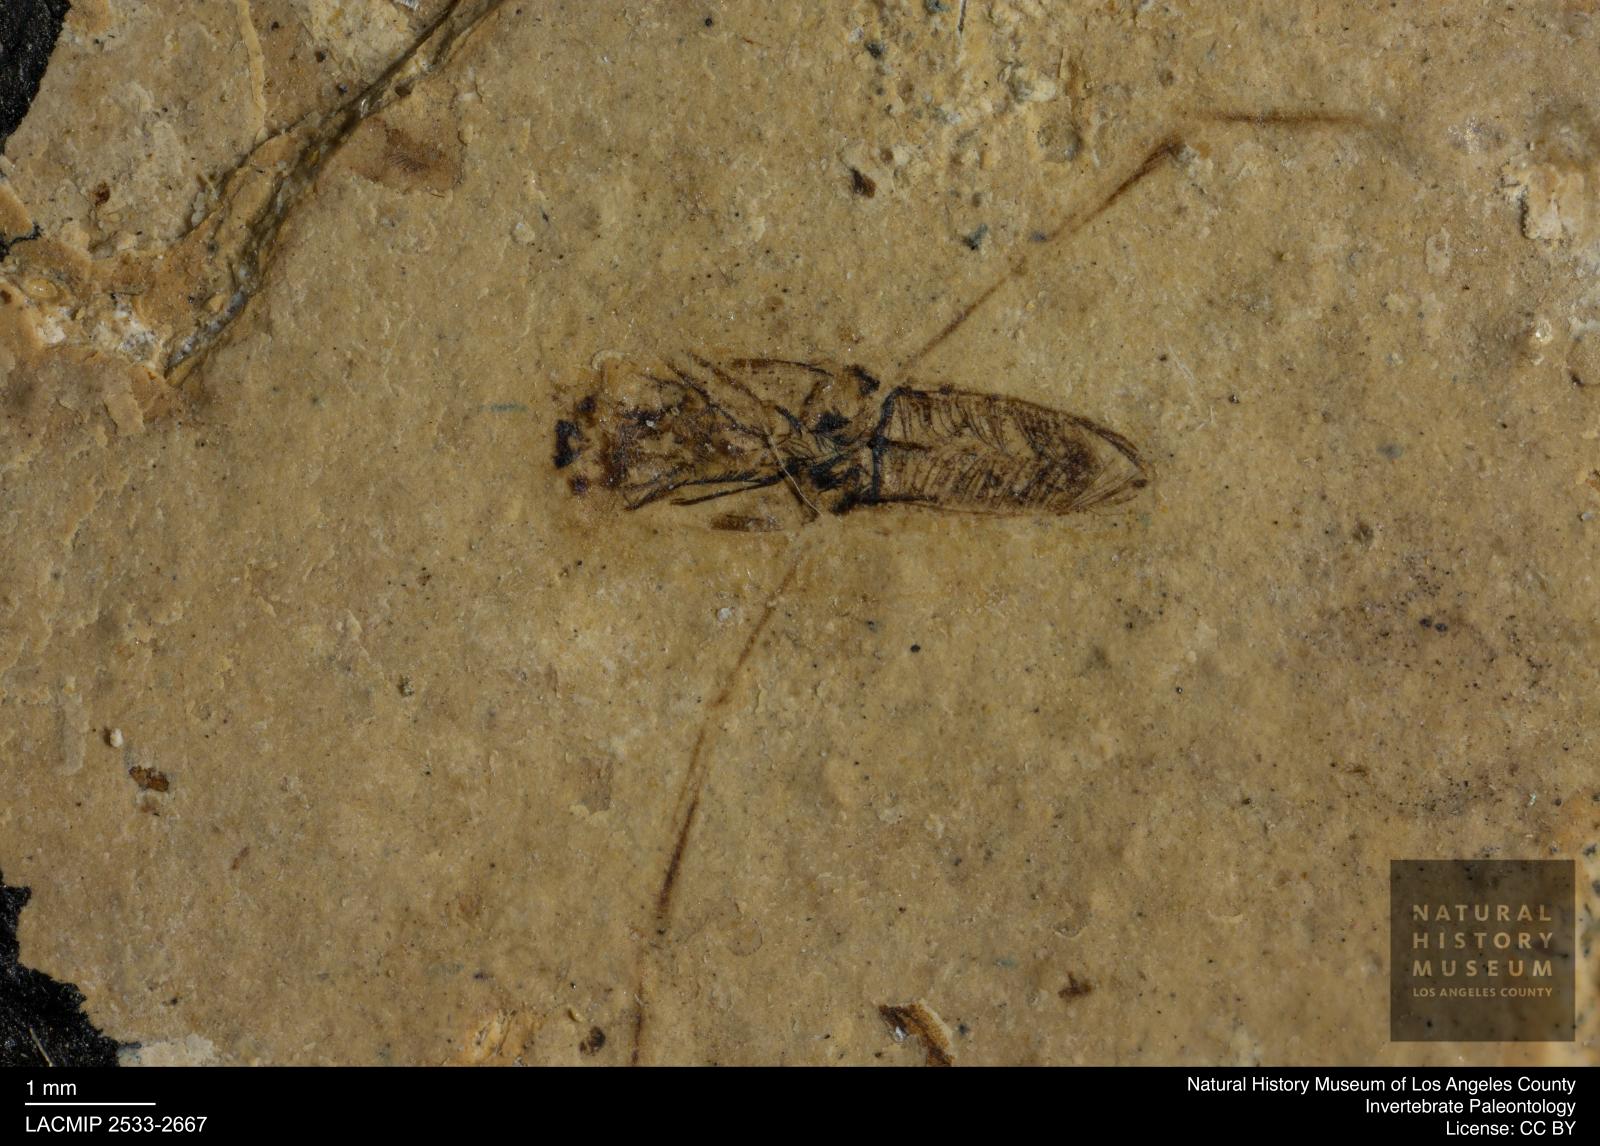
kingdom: Animalia
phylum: Arthropoda
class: Insecta
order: Hemiptera
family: Notonectidae
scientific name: Notonectidae
